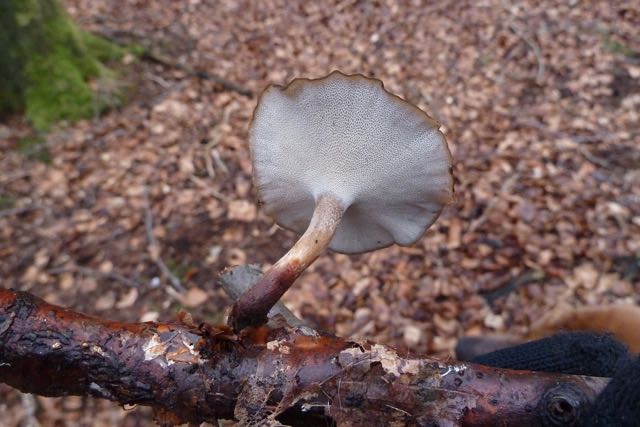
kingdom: Fungi
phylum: Basidiomycota
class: Agaricomycetes
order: Polyporales
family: Polyporaceae
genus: Lentinus
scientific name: Lentinus brumalis
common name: vinter-stilkporesvamp
